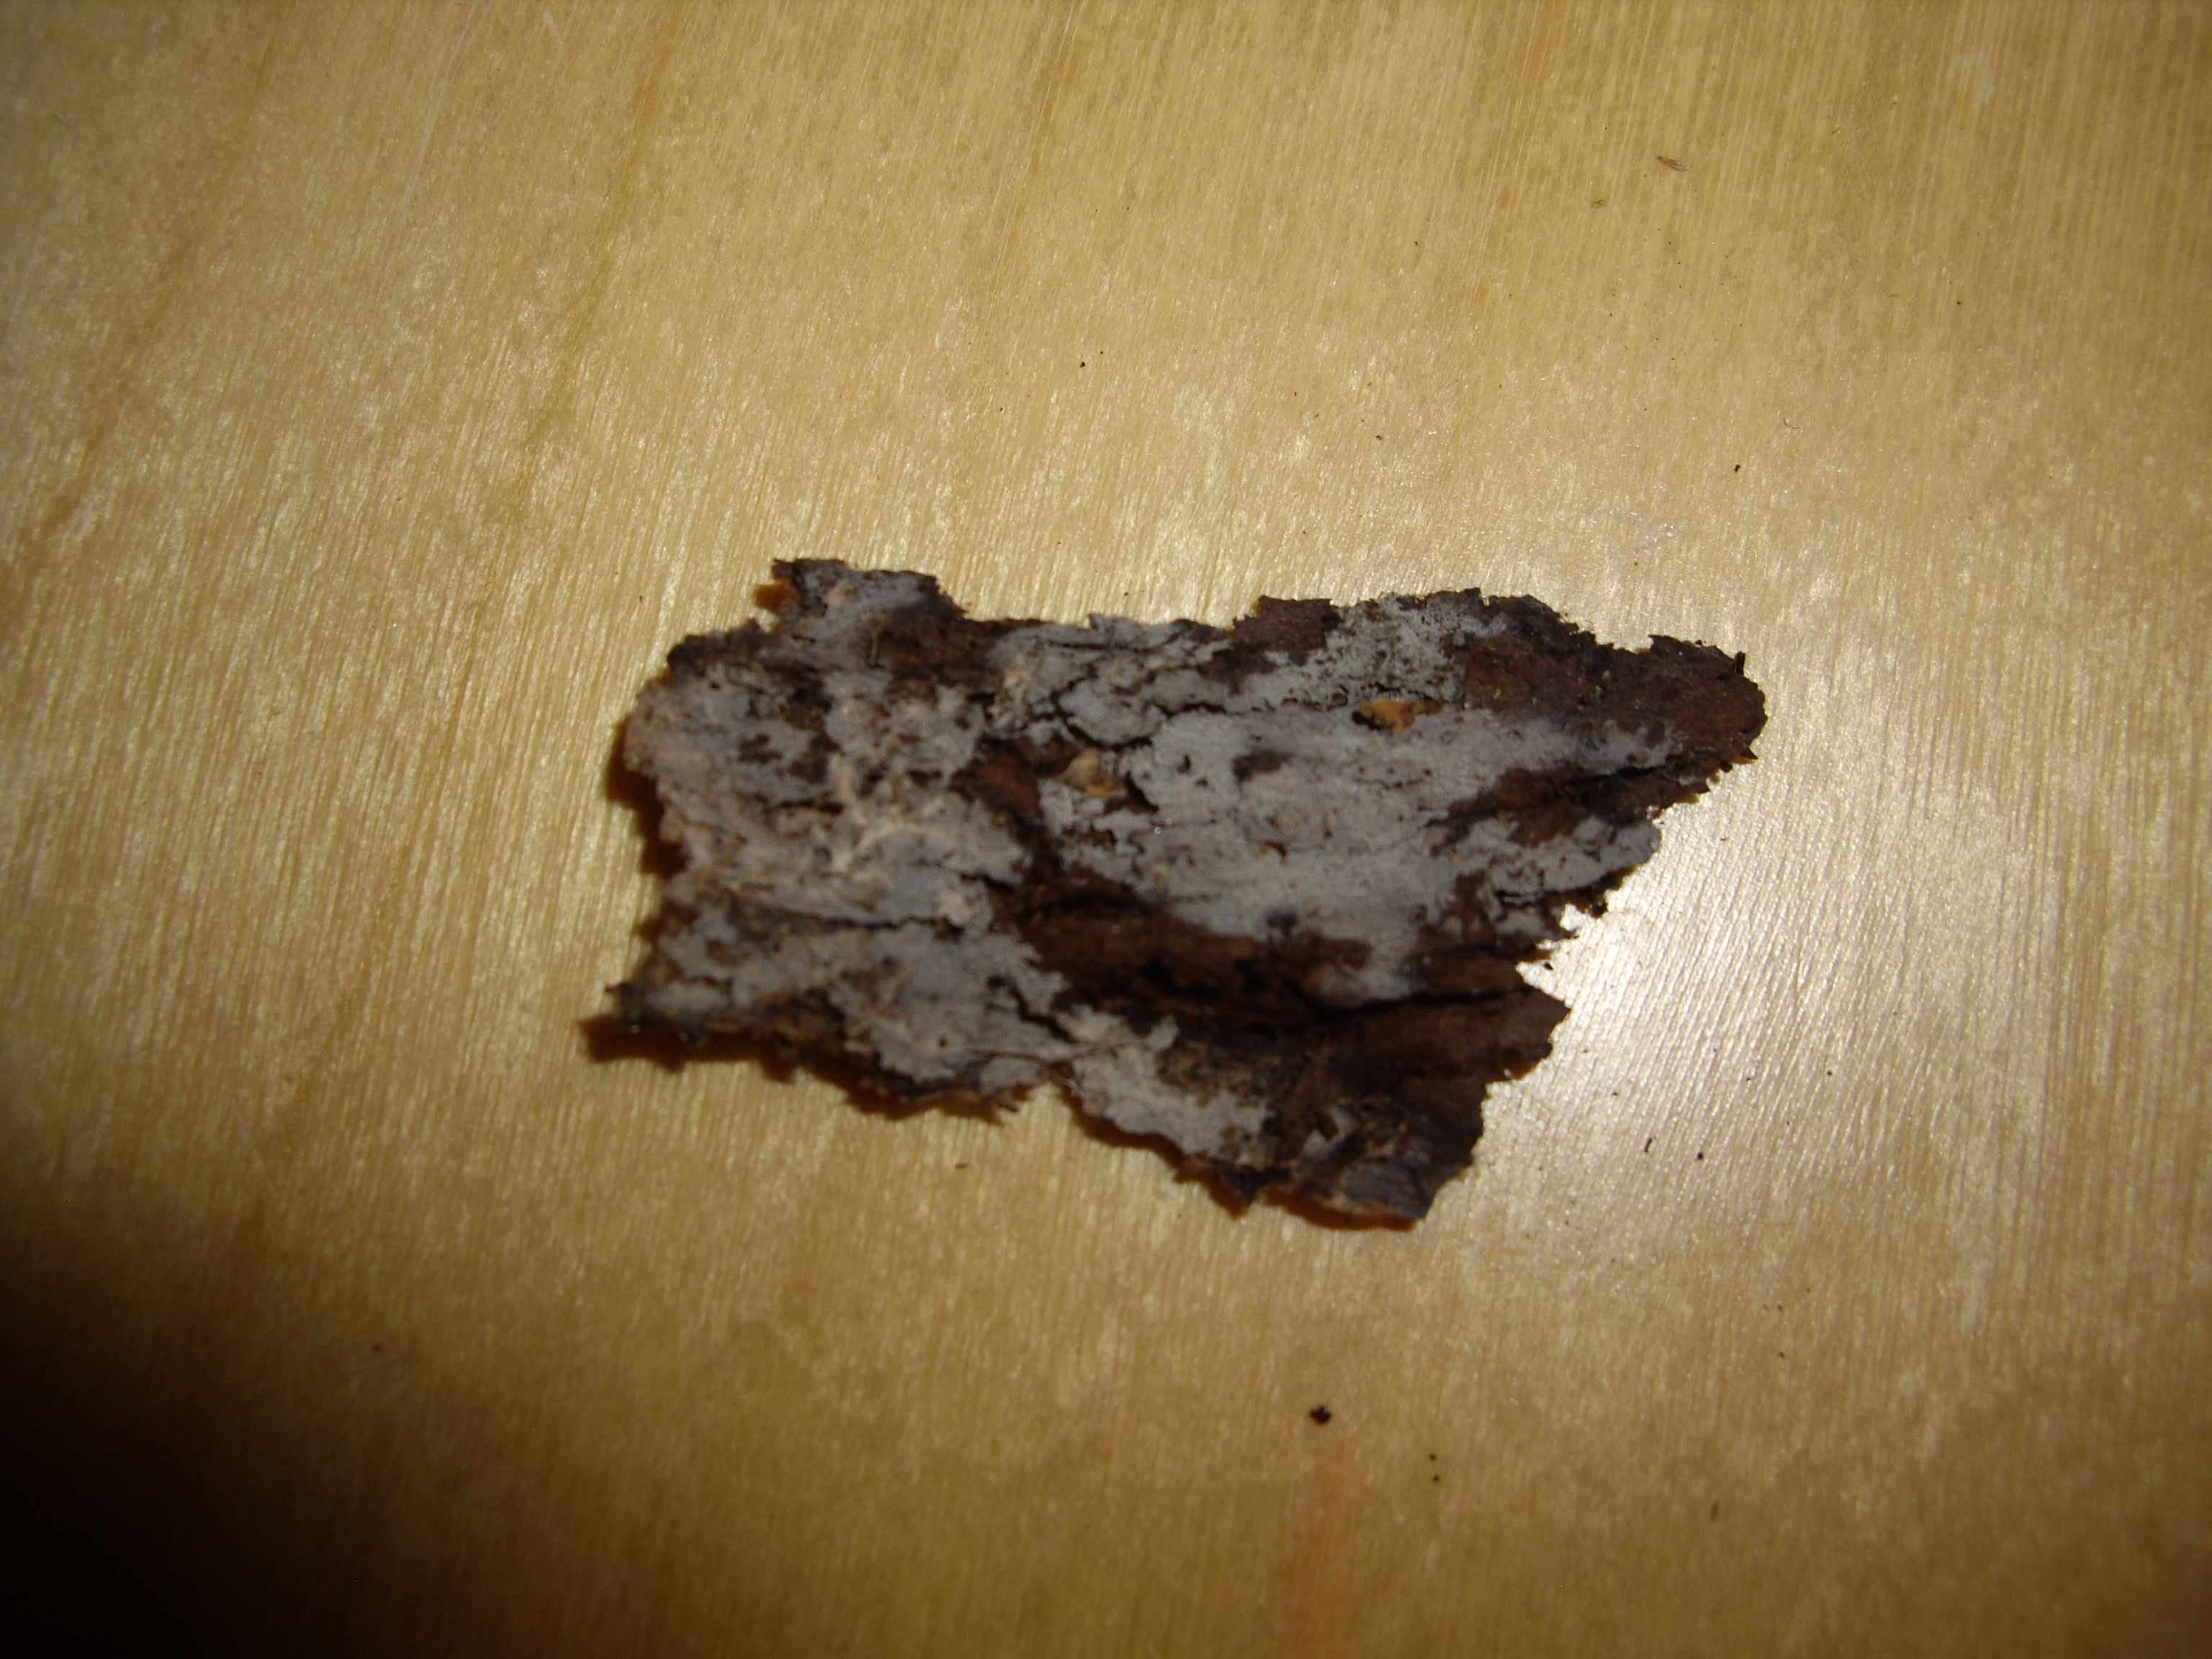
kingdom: Fungi
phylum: Basidiomycota
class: Agaricomycetes
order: Trechisporales
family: Sistotremataceae
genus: Trechispora
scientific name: Trechispora stellulata
